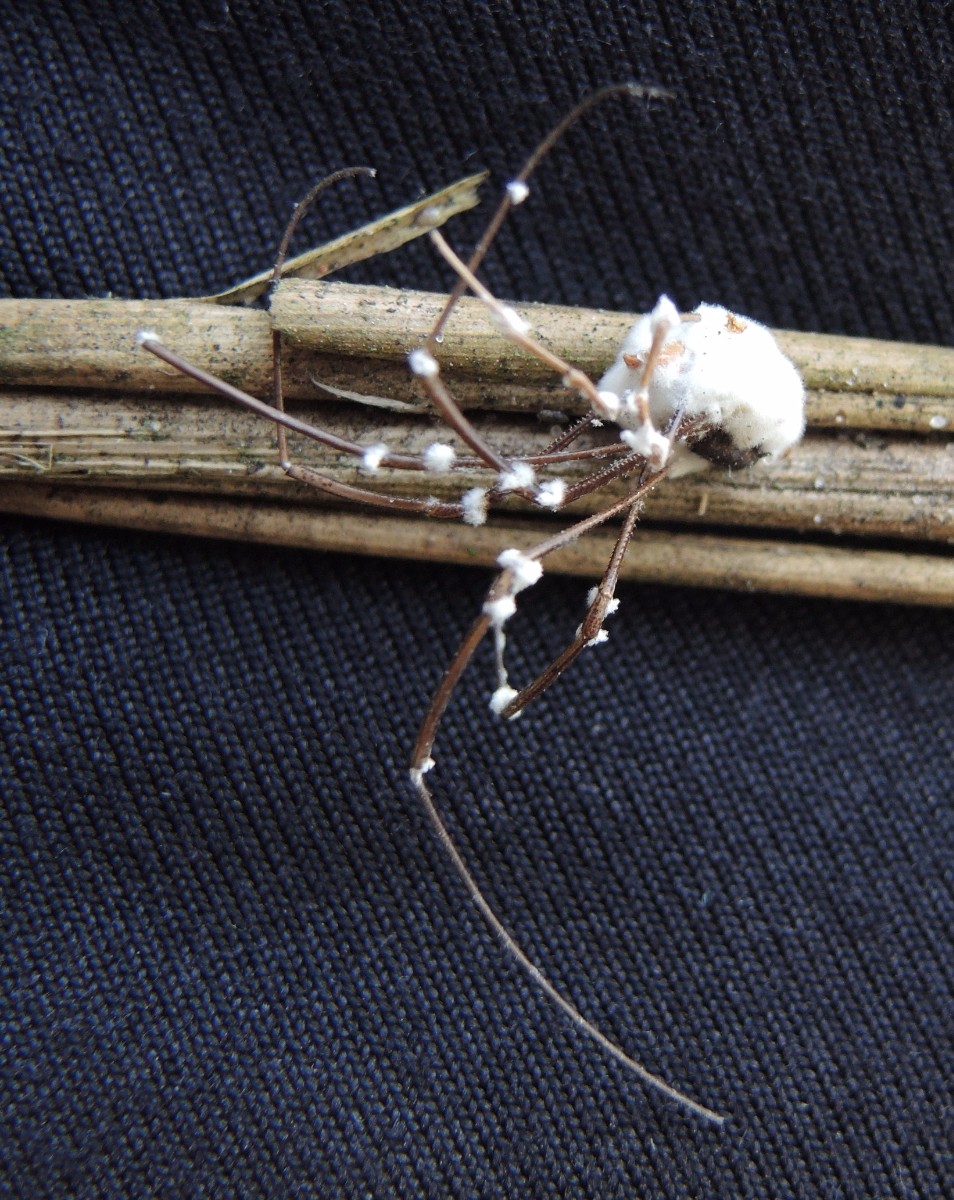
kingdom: Fungi
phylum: Ascomycota
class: Sordariomycetes
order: Hypocreales
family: Cordycipitaceae
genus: Beauveria
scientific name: Beauveria bassiana
